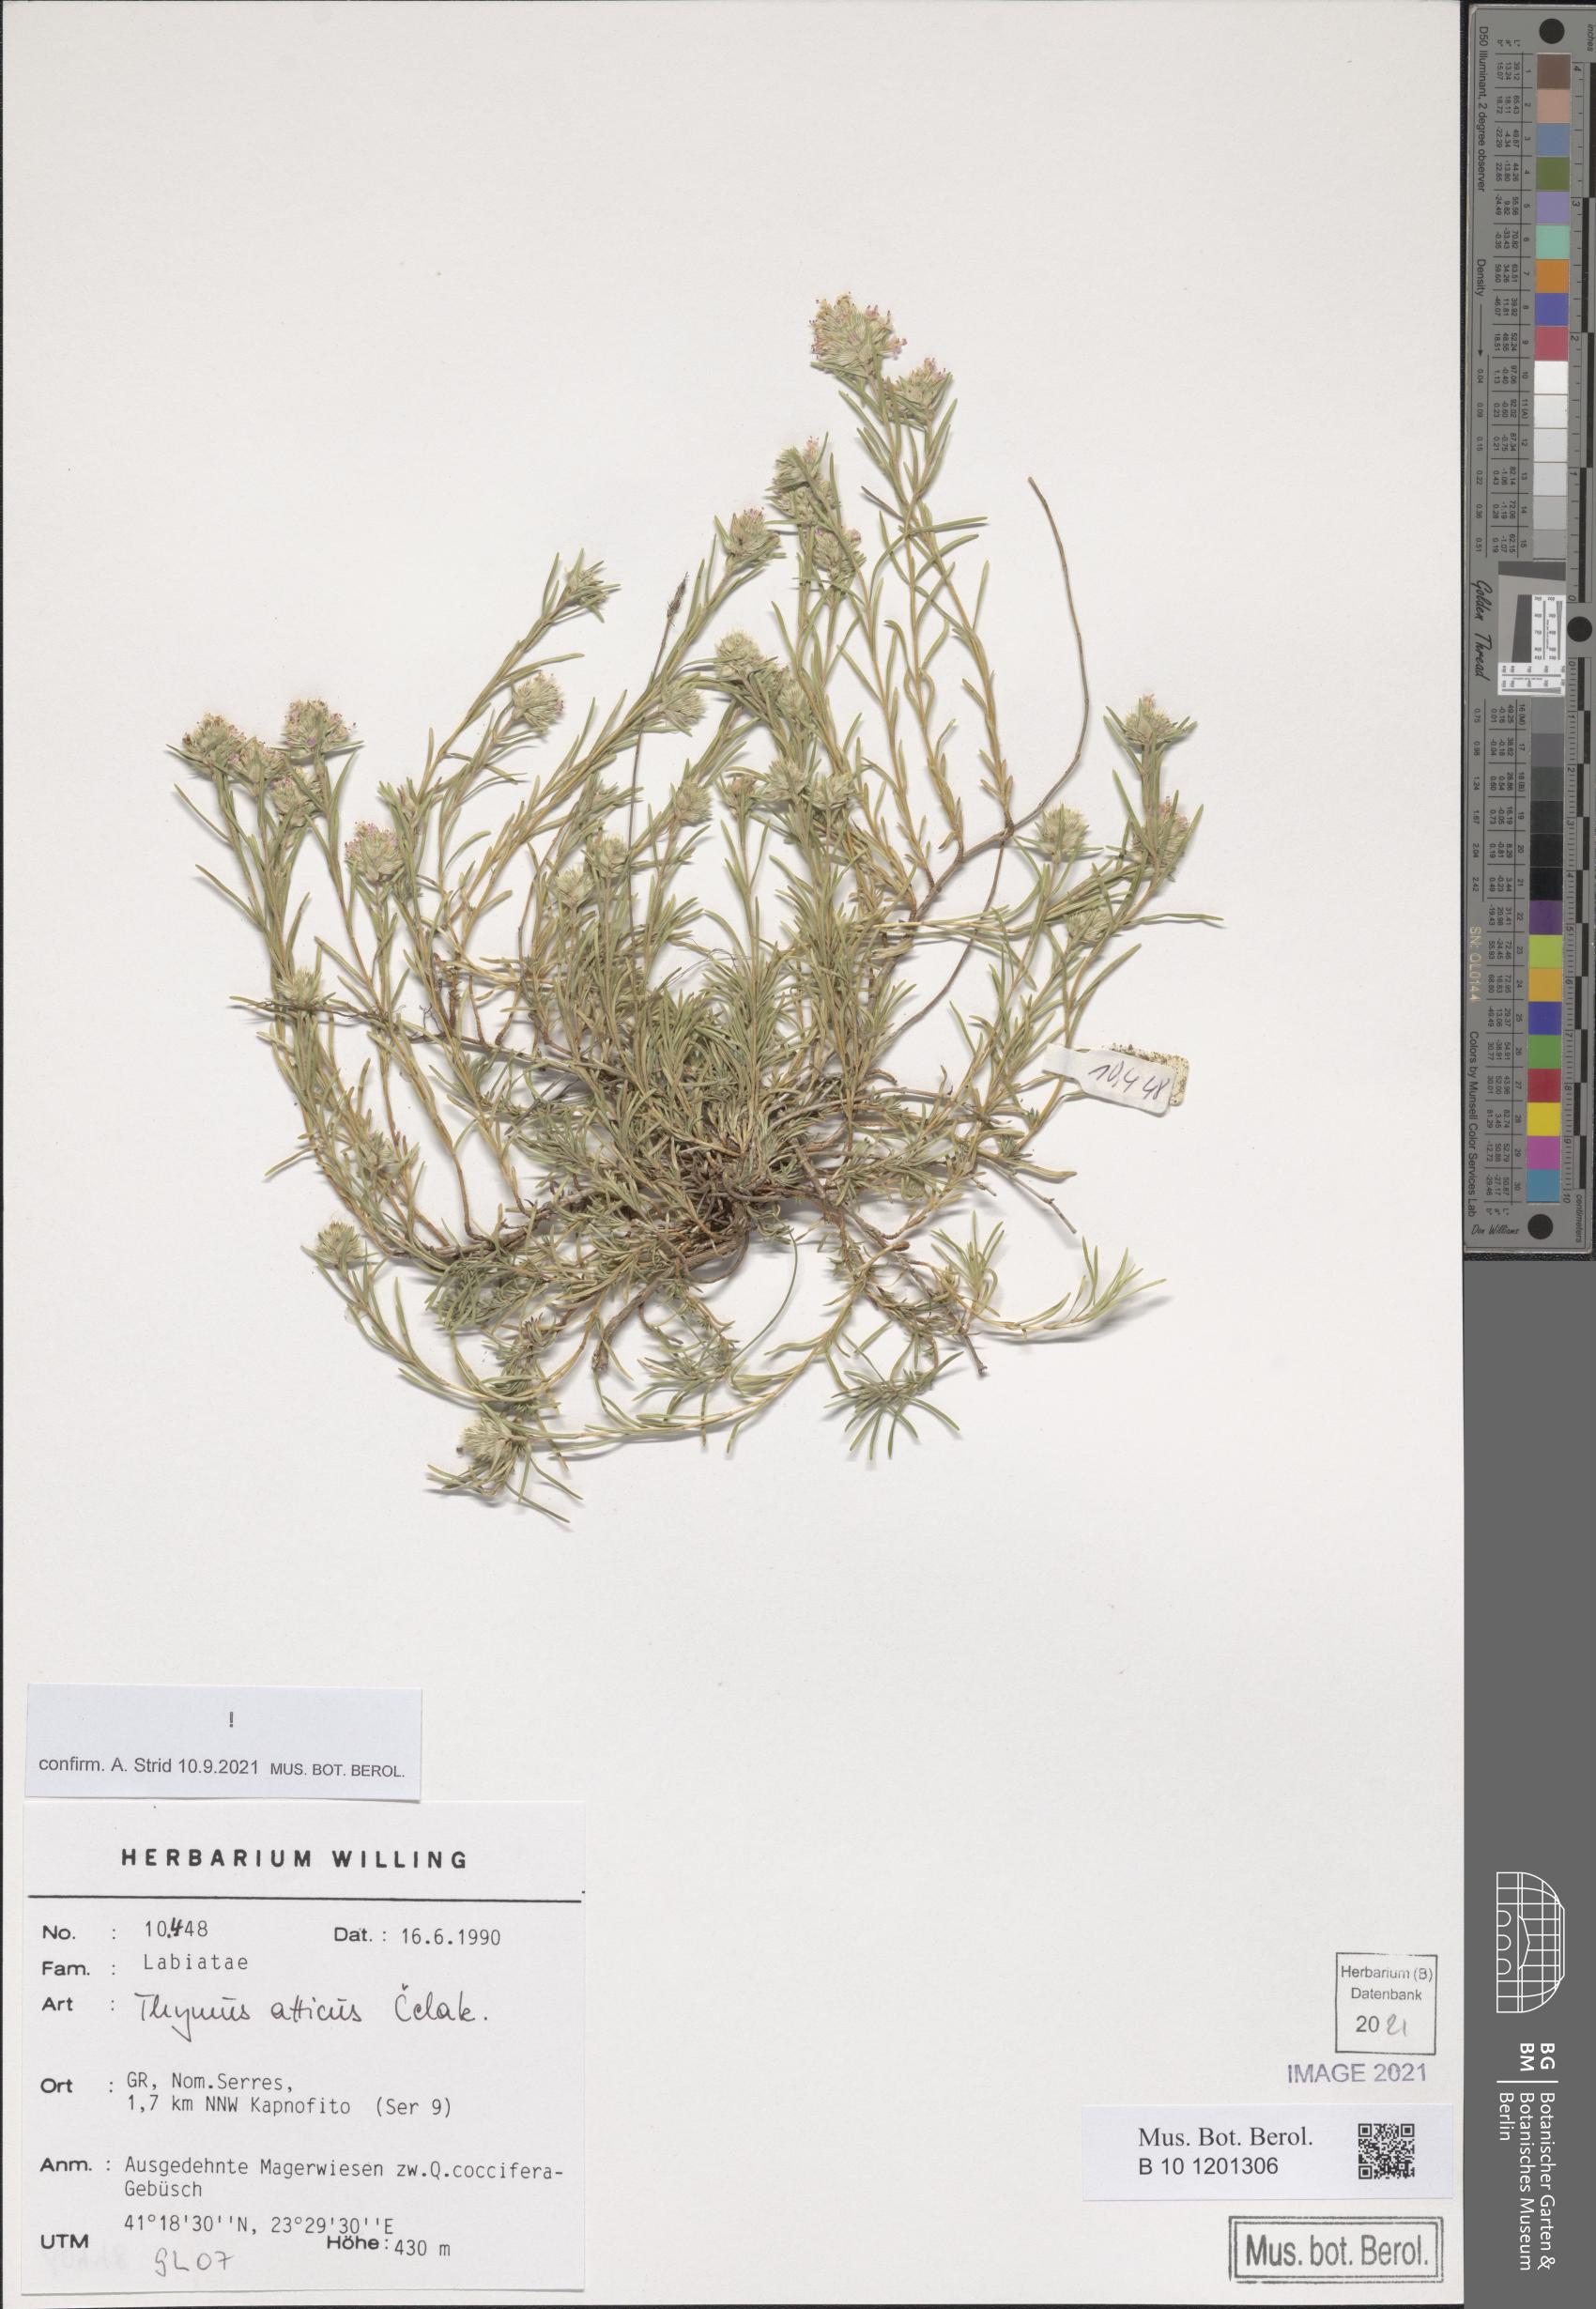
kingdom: Plantae
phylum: Tracheophyta
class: Magnoliopsida
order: Lamiales
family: Lamiaceae
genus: Thymus
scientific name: Thymus atticus
